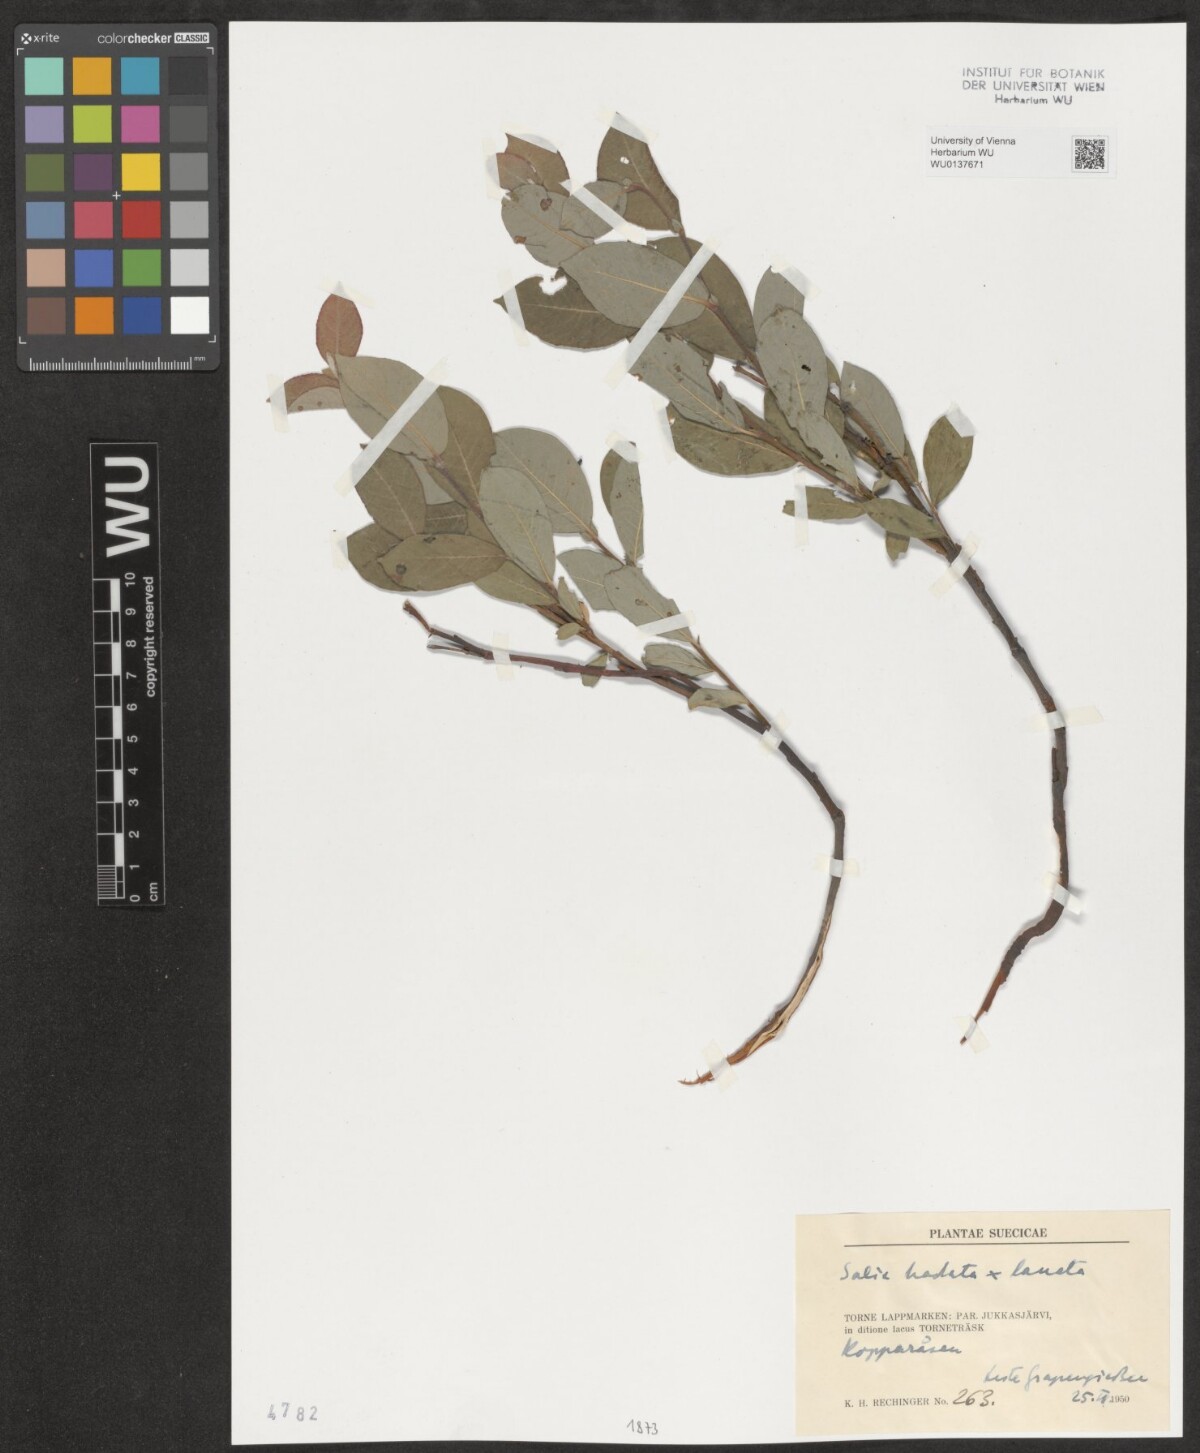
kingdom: Plantae
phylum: Tracheophyta
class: Magnoliopsida
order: Malpighiales
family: Salicaceae
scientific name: Salicaceae
